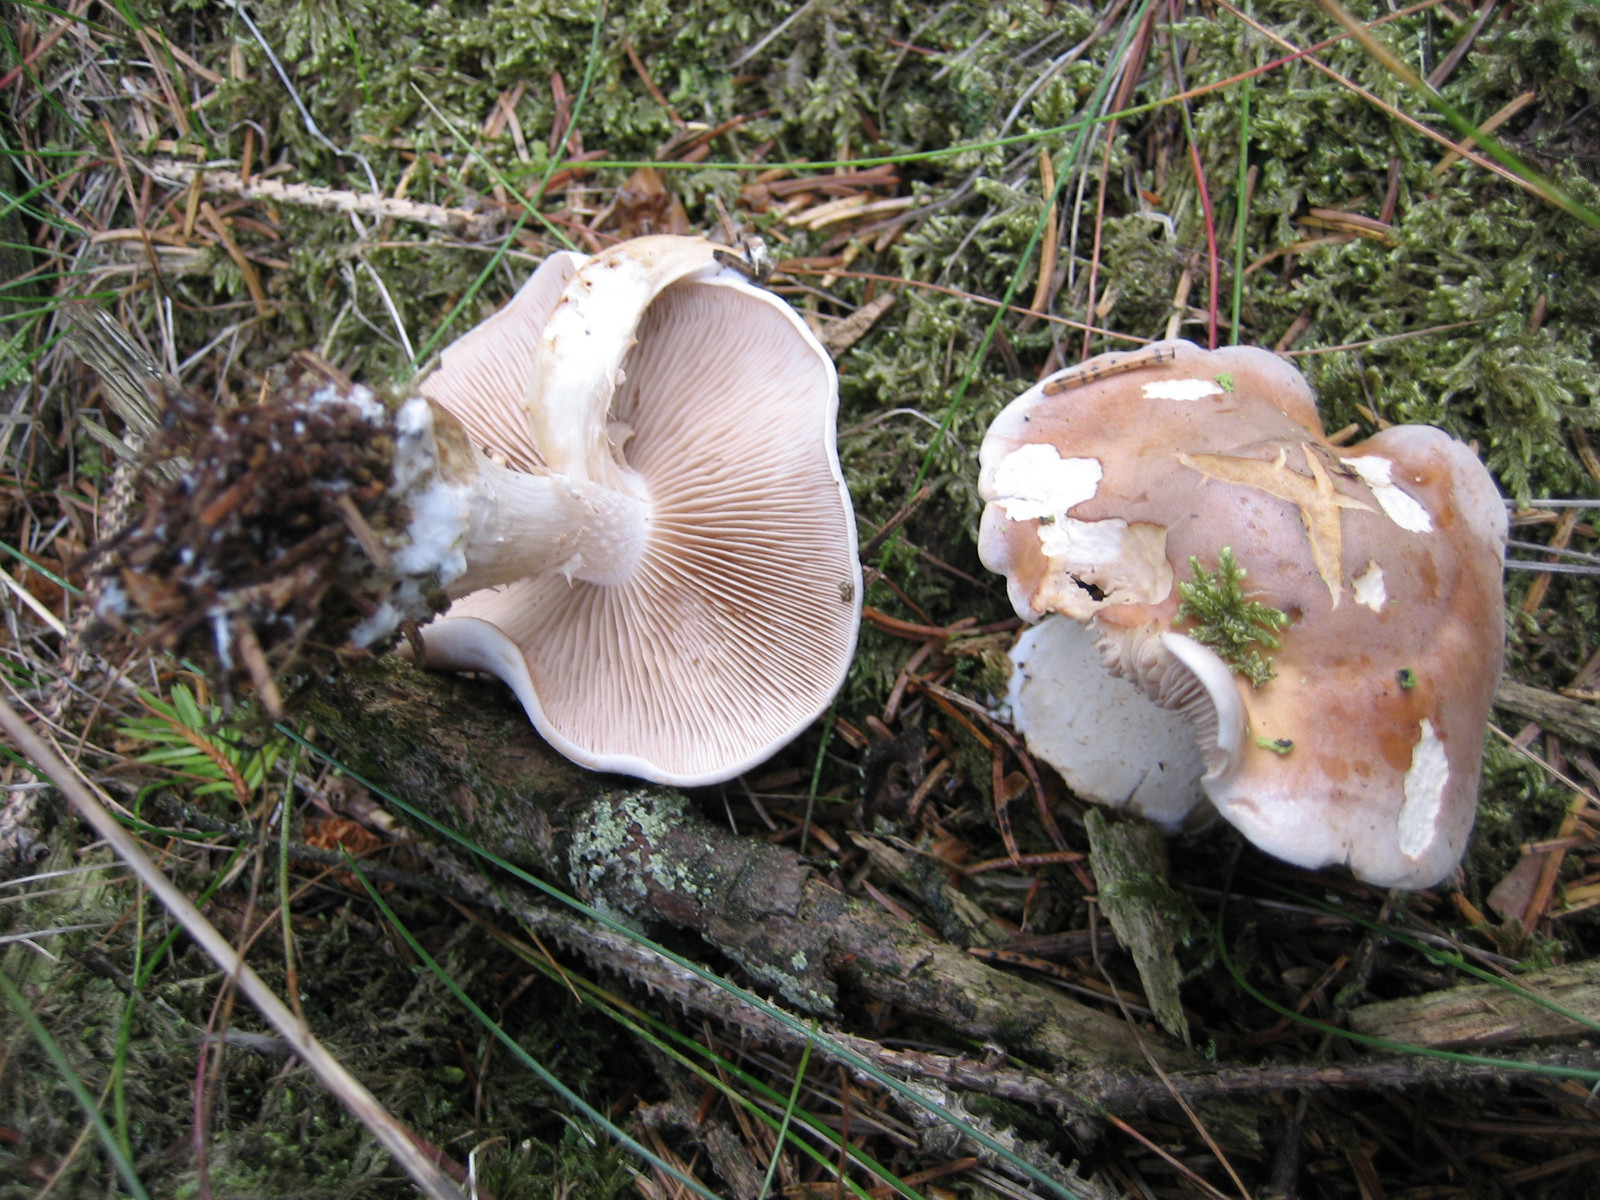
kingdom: Fungi
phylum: Basidiomycota
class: Agaricomycetes
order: Agaricales
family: Hymenogastraceae
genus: Hebeloma
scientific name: Hebeloma
